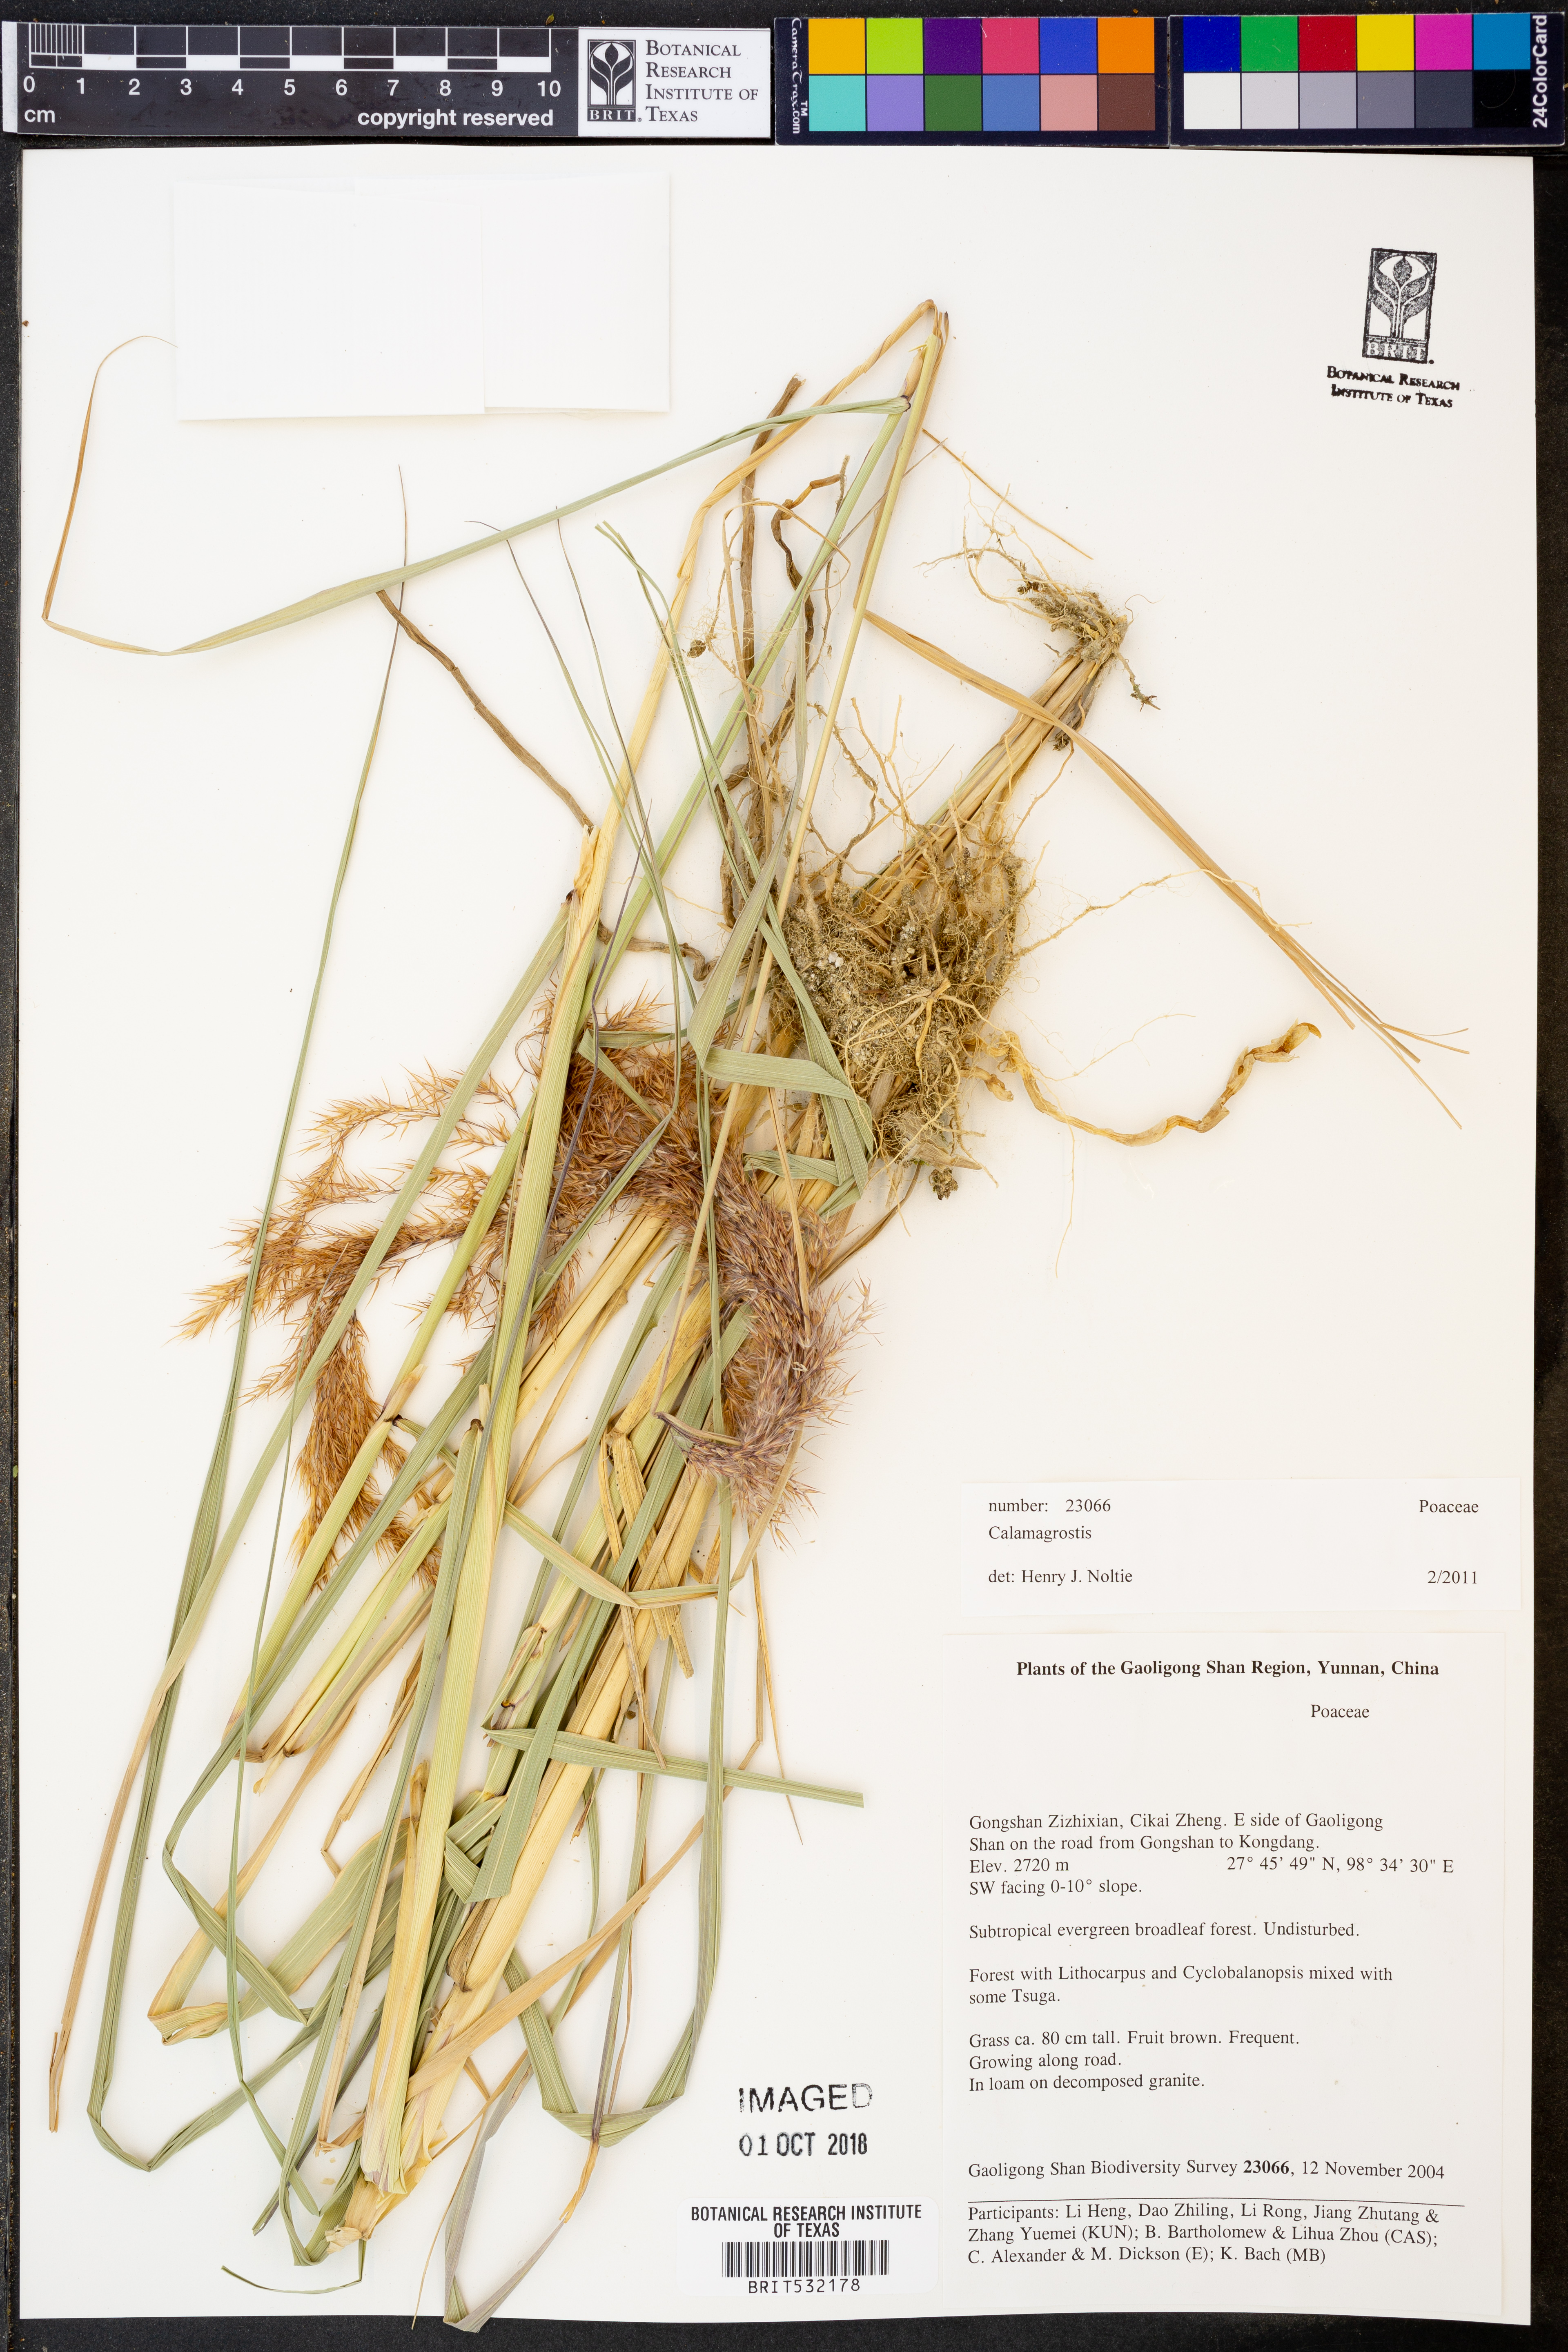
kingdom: Plantae
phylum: Tracheophyta
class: Liliopsida
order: Poales
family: Poaceae
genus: Calamagrostis
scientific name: Calamagrostis
